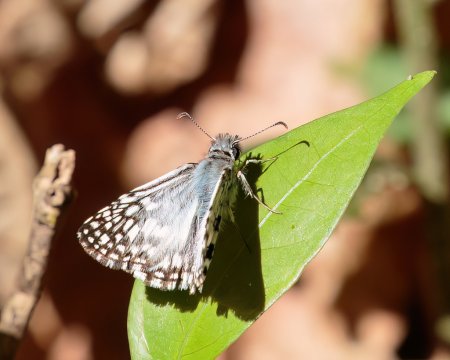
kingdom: Animalia
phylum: Arthropoda
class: Insecta
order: Lepidoptera
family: Hesperiidae
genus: Pyrgus
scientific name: Pyrgus oileus
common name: Orcus Checkered-Skipper
